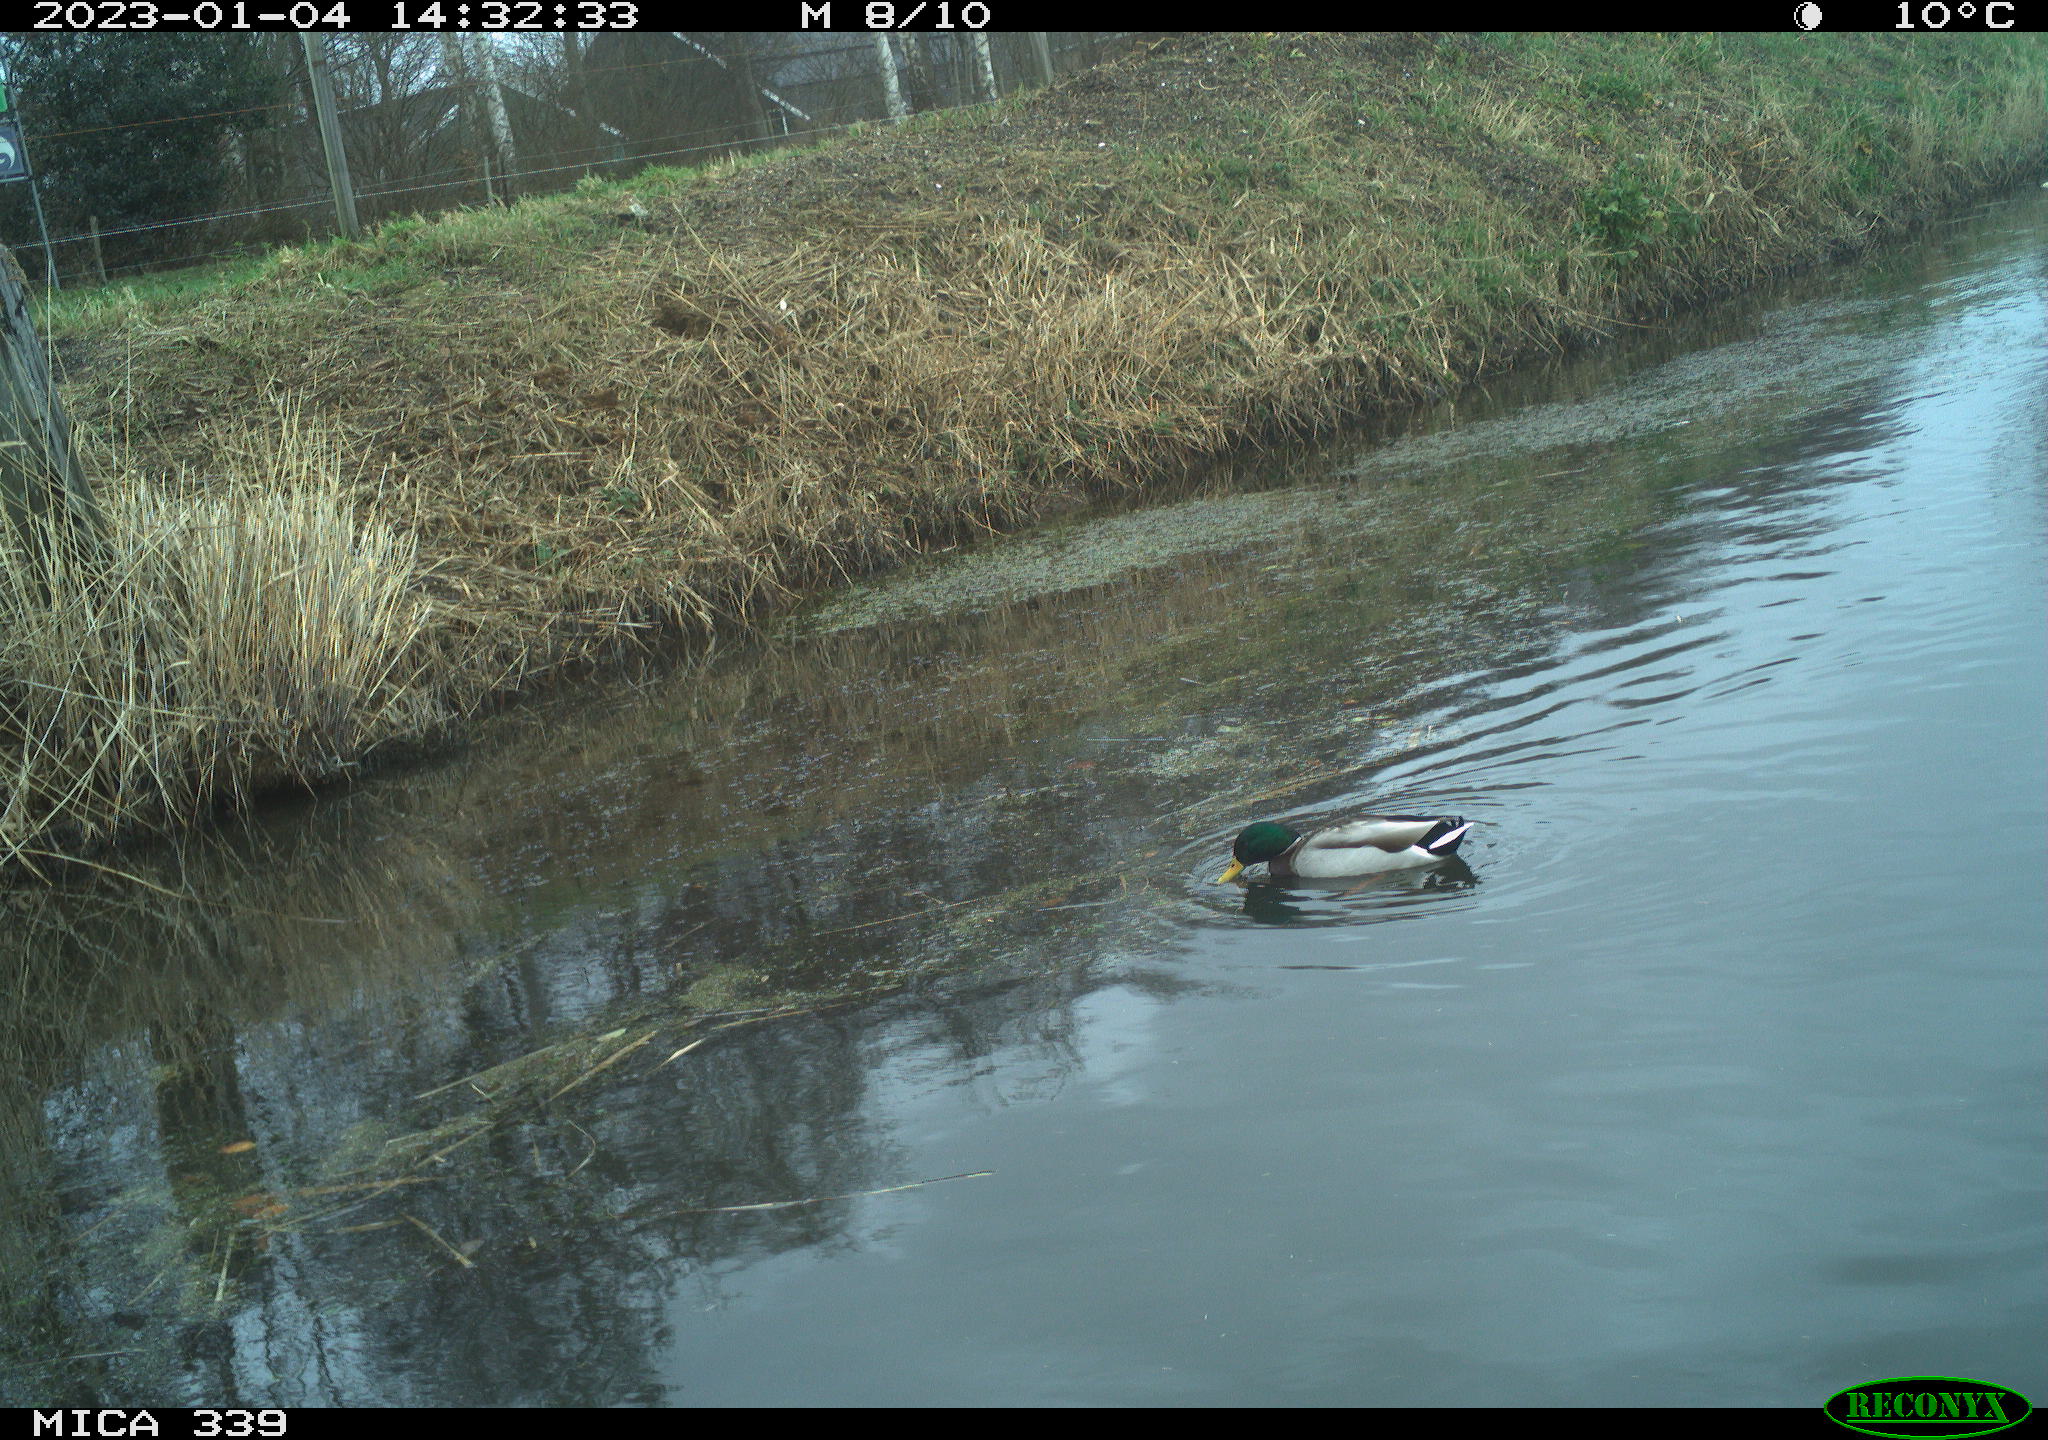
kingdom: Animalia
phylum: Chordata
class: Aves
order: Anseriformes
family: Anatidae
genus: Anas
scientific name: Anas
